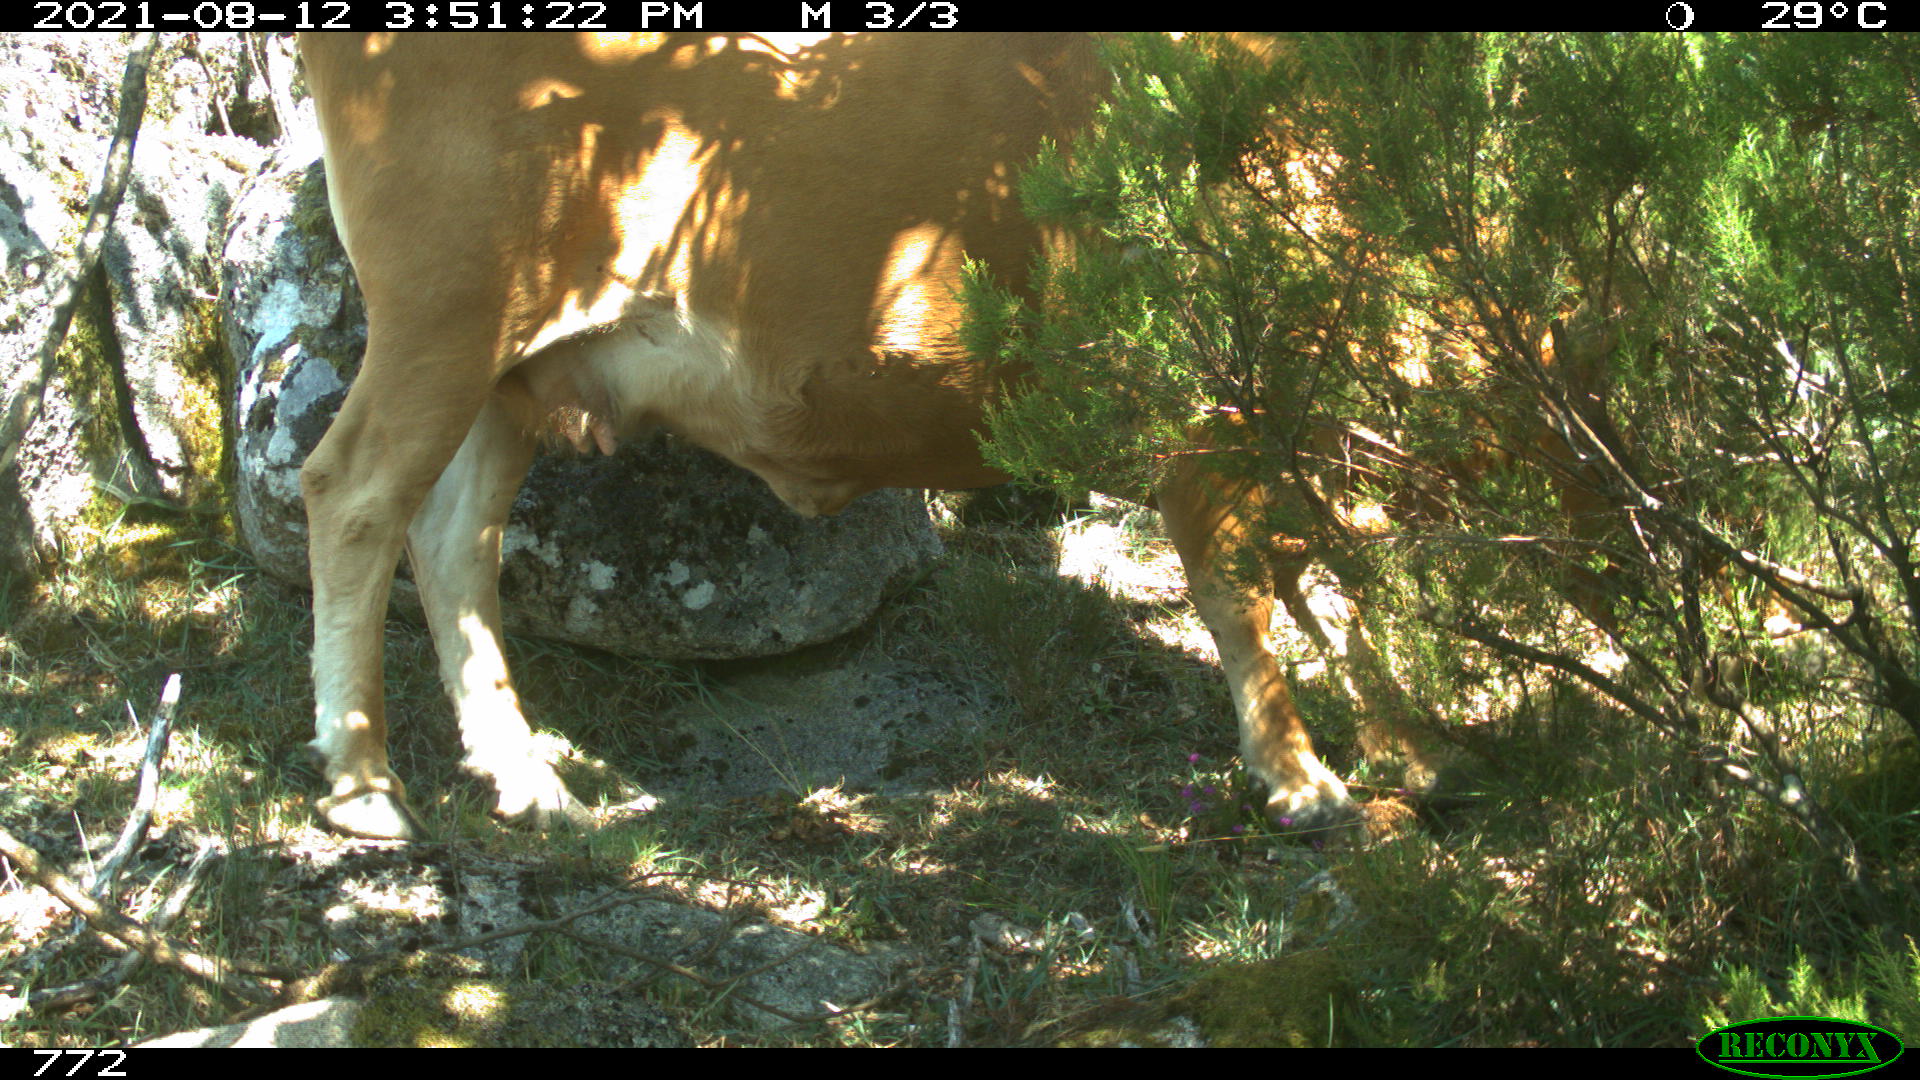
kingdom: Animalia
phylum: Chordata
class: Mammalia
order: Artiodactyla
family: Bovidae
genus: Bos
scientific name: Bos taurus
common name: Domesticated cattle
